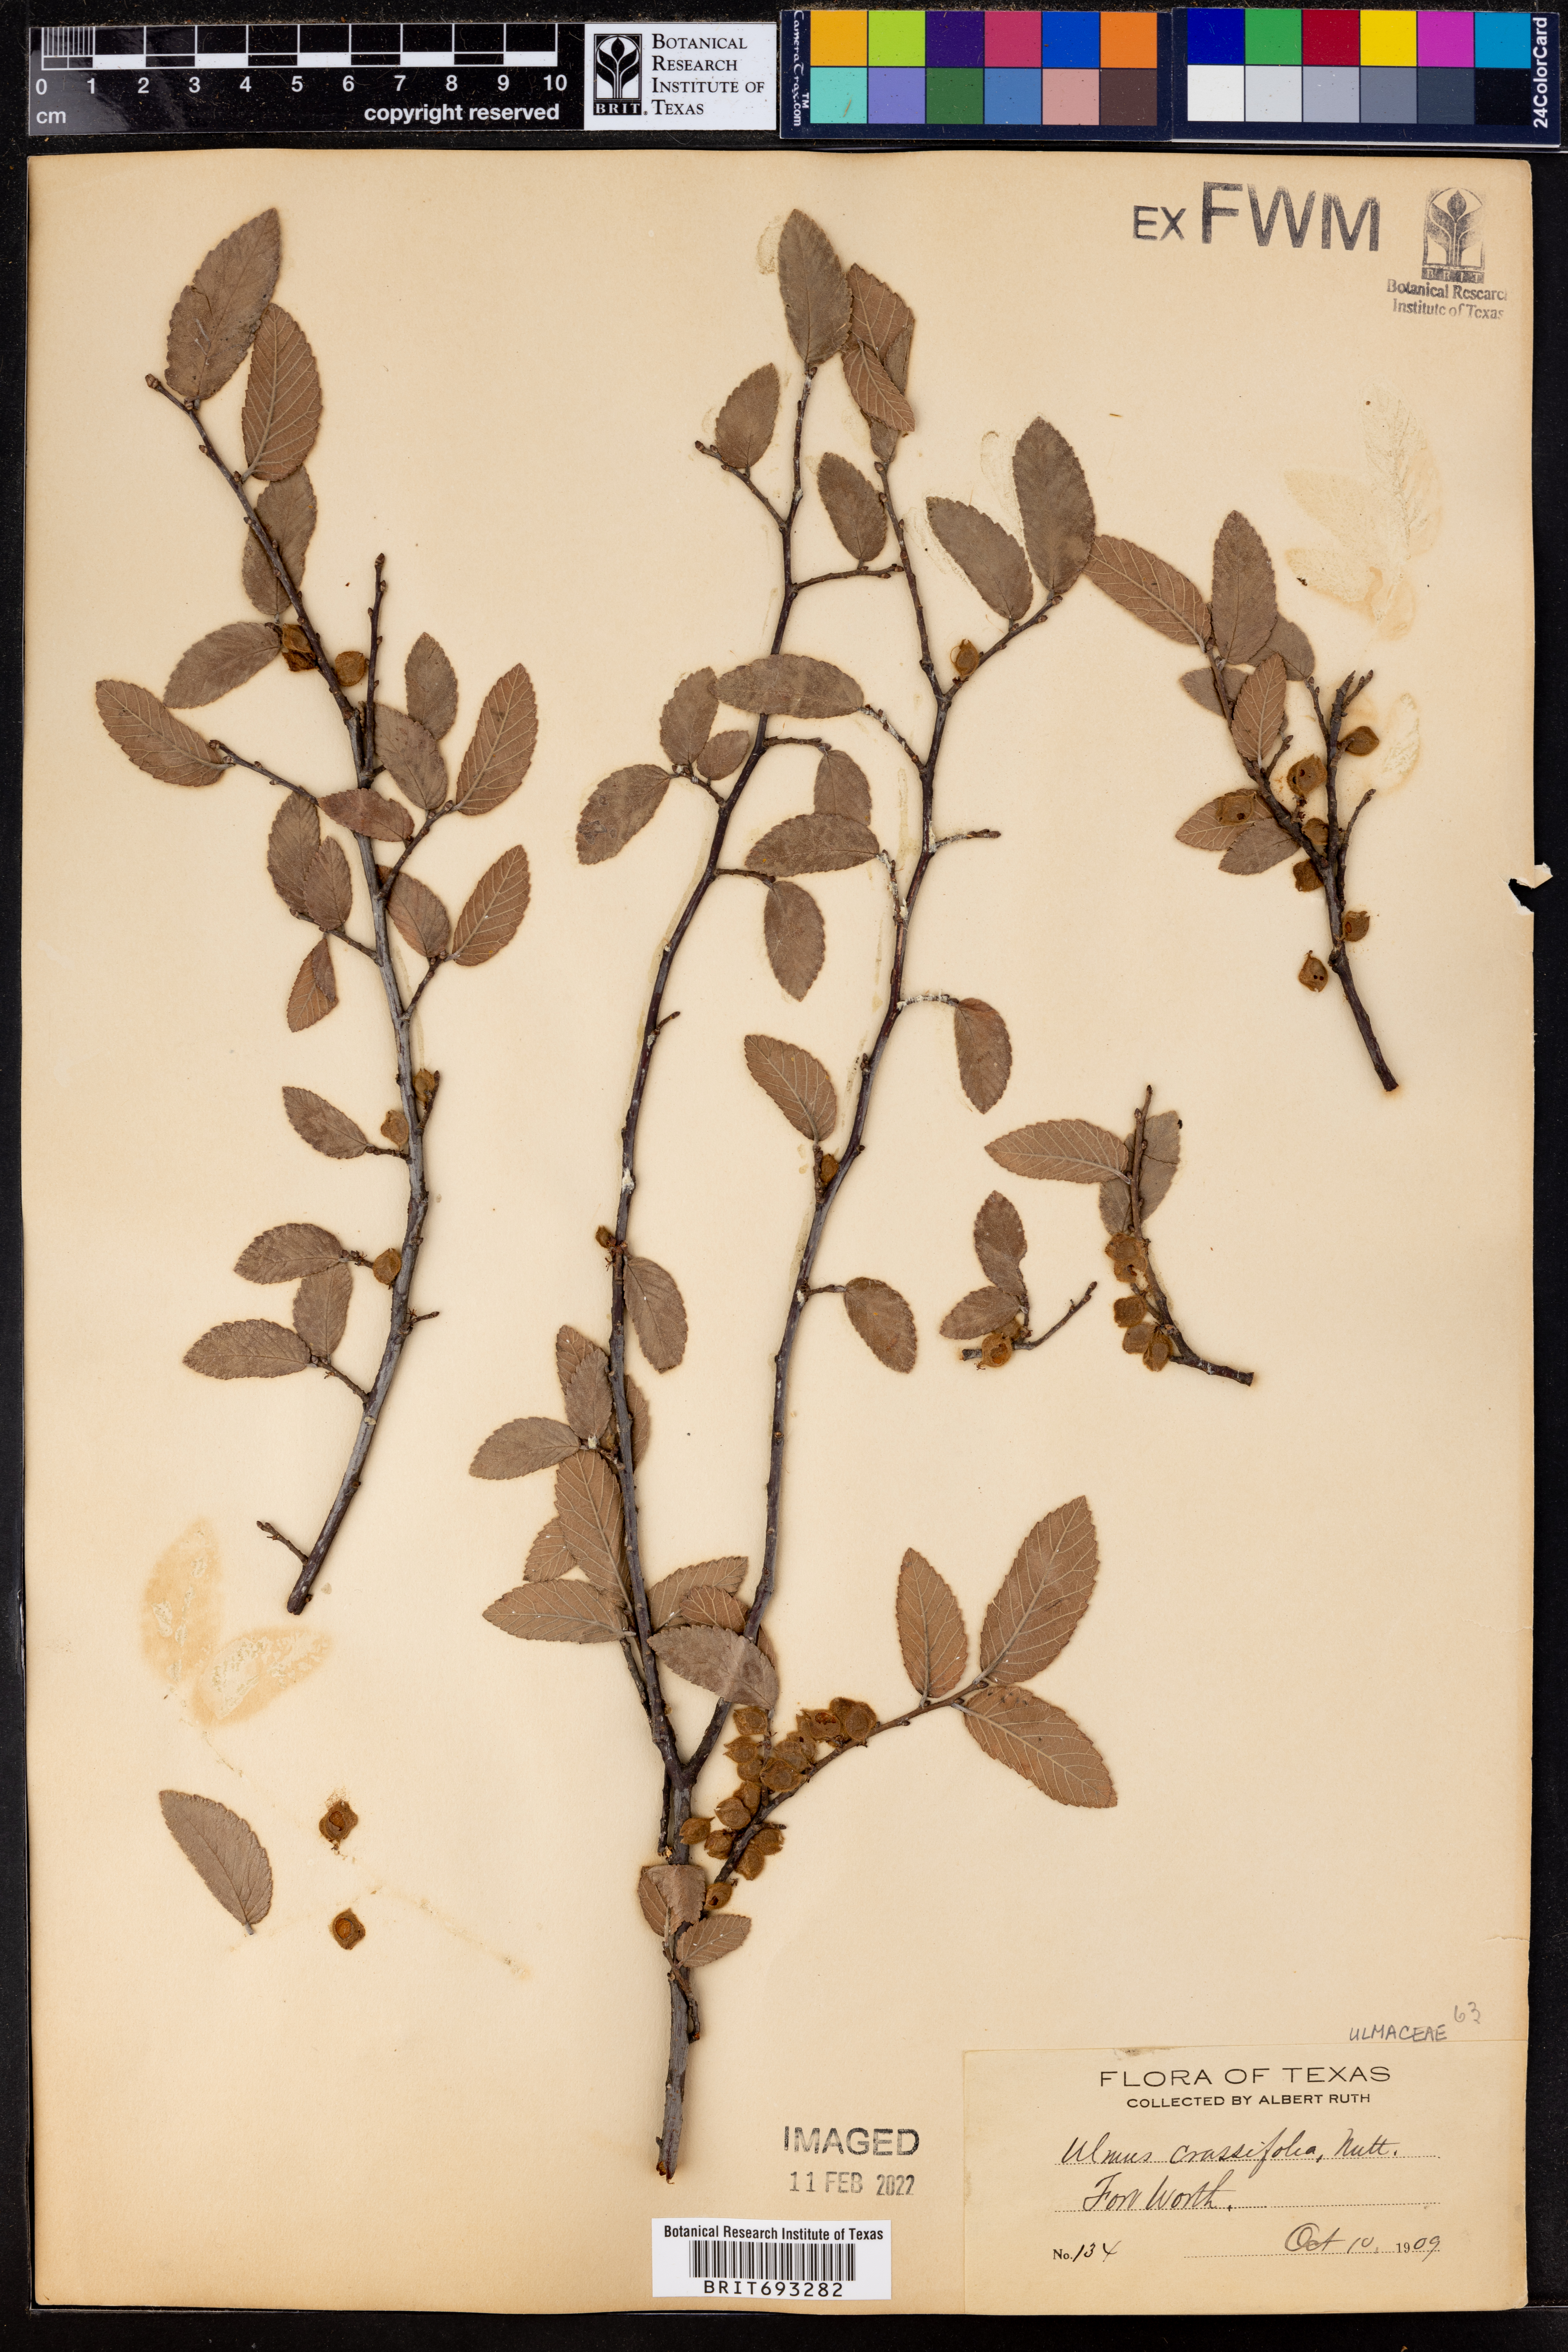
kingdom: Plantae
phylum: Tracheophyta
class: Magnoliopsida
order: Rosales
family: Ulmaceae
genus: Ulmus
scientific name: Ulmus crassifolia
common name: Basket elm
